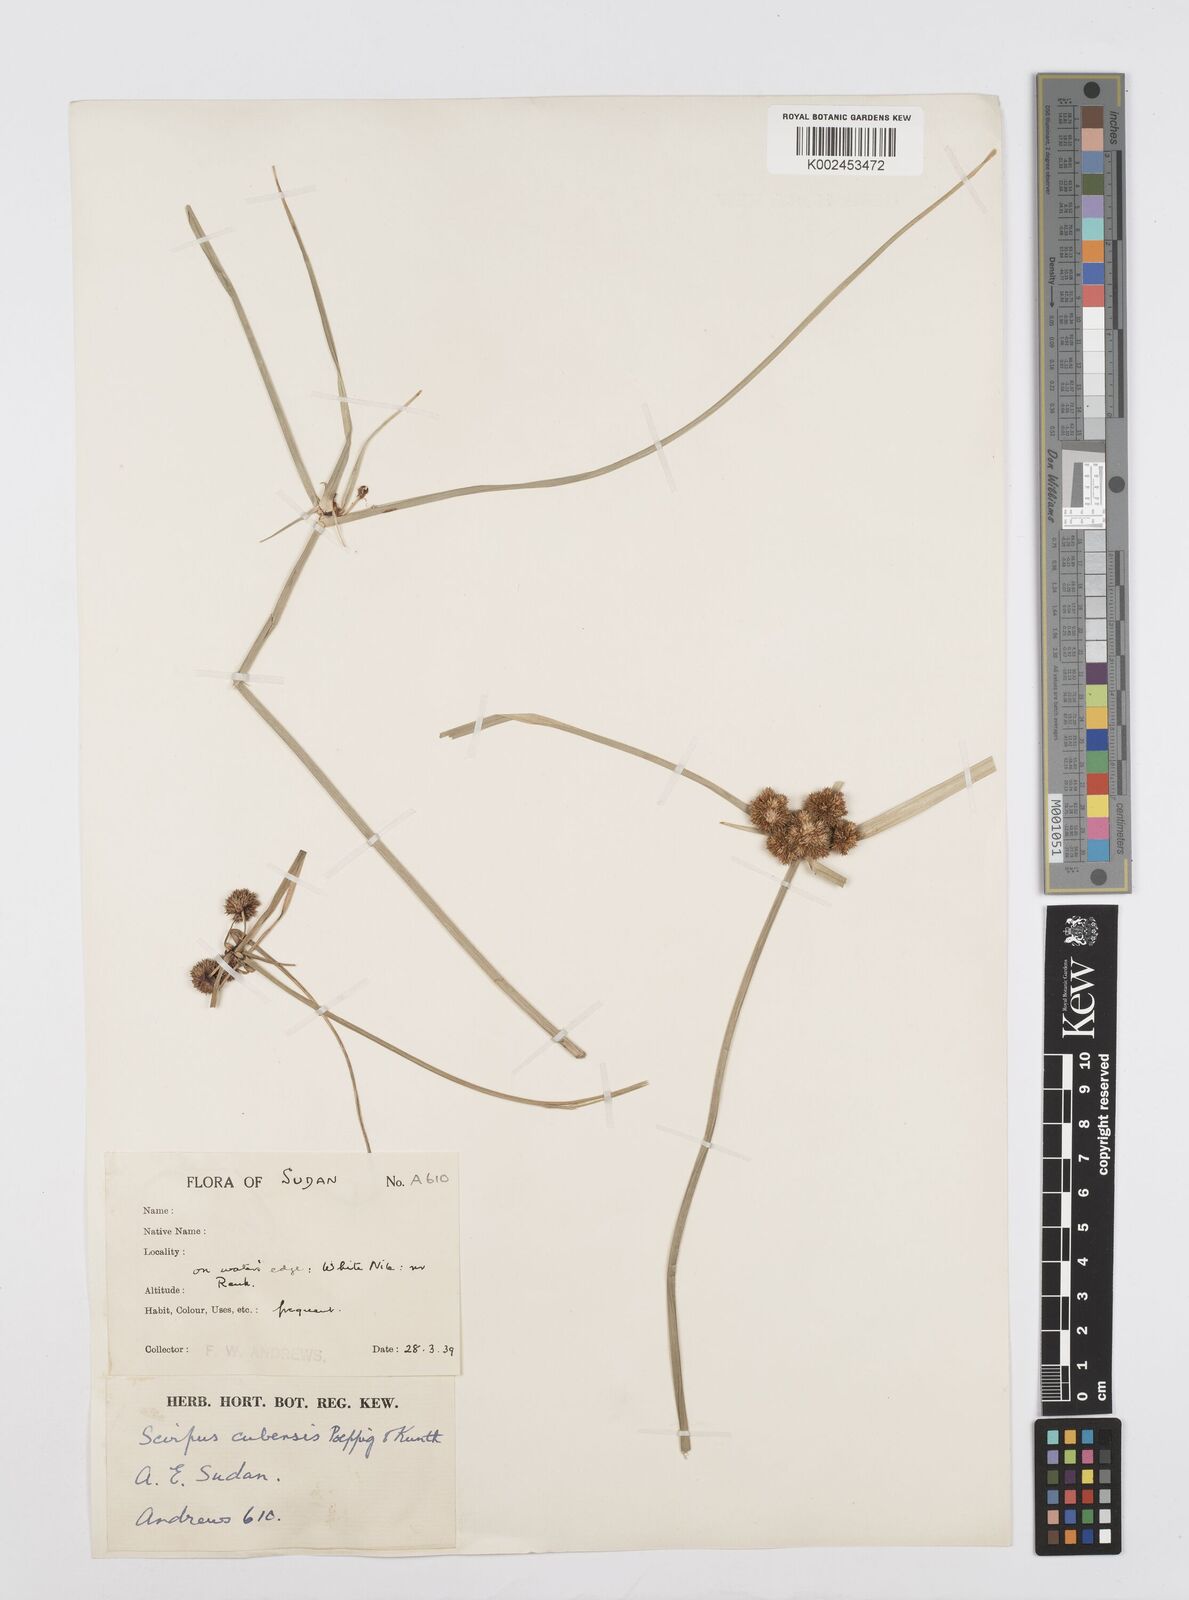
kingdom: Plantae
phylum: Tracheophyta
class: Liliopsida
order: Poales
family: Cyperaceae
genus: Cyperus
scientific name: Cyperus elegans
